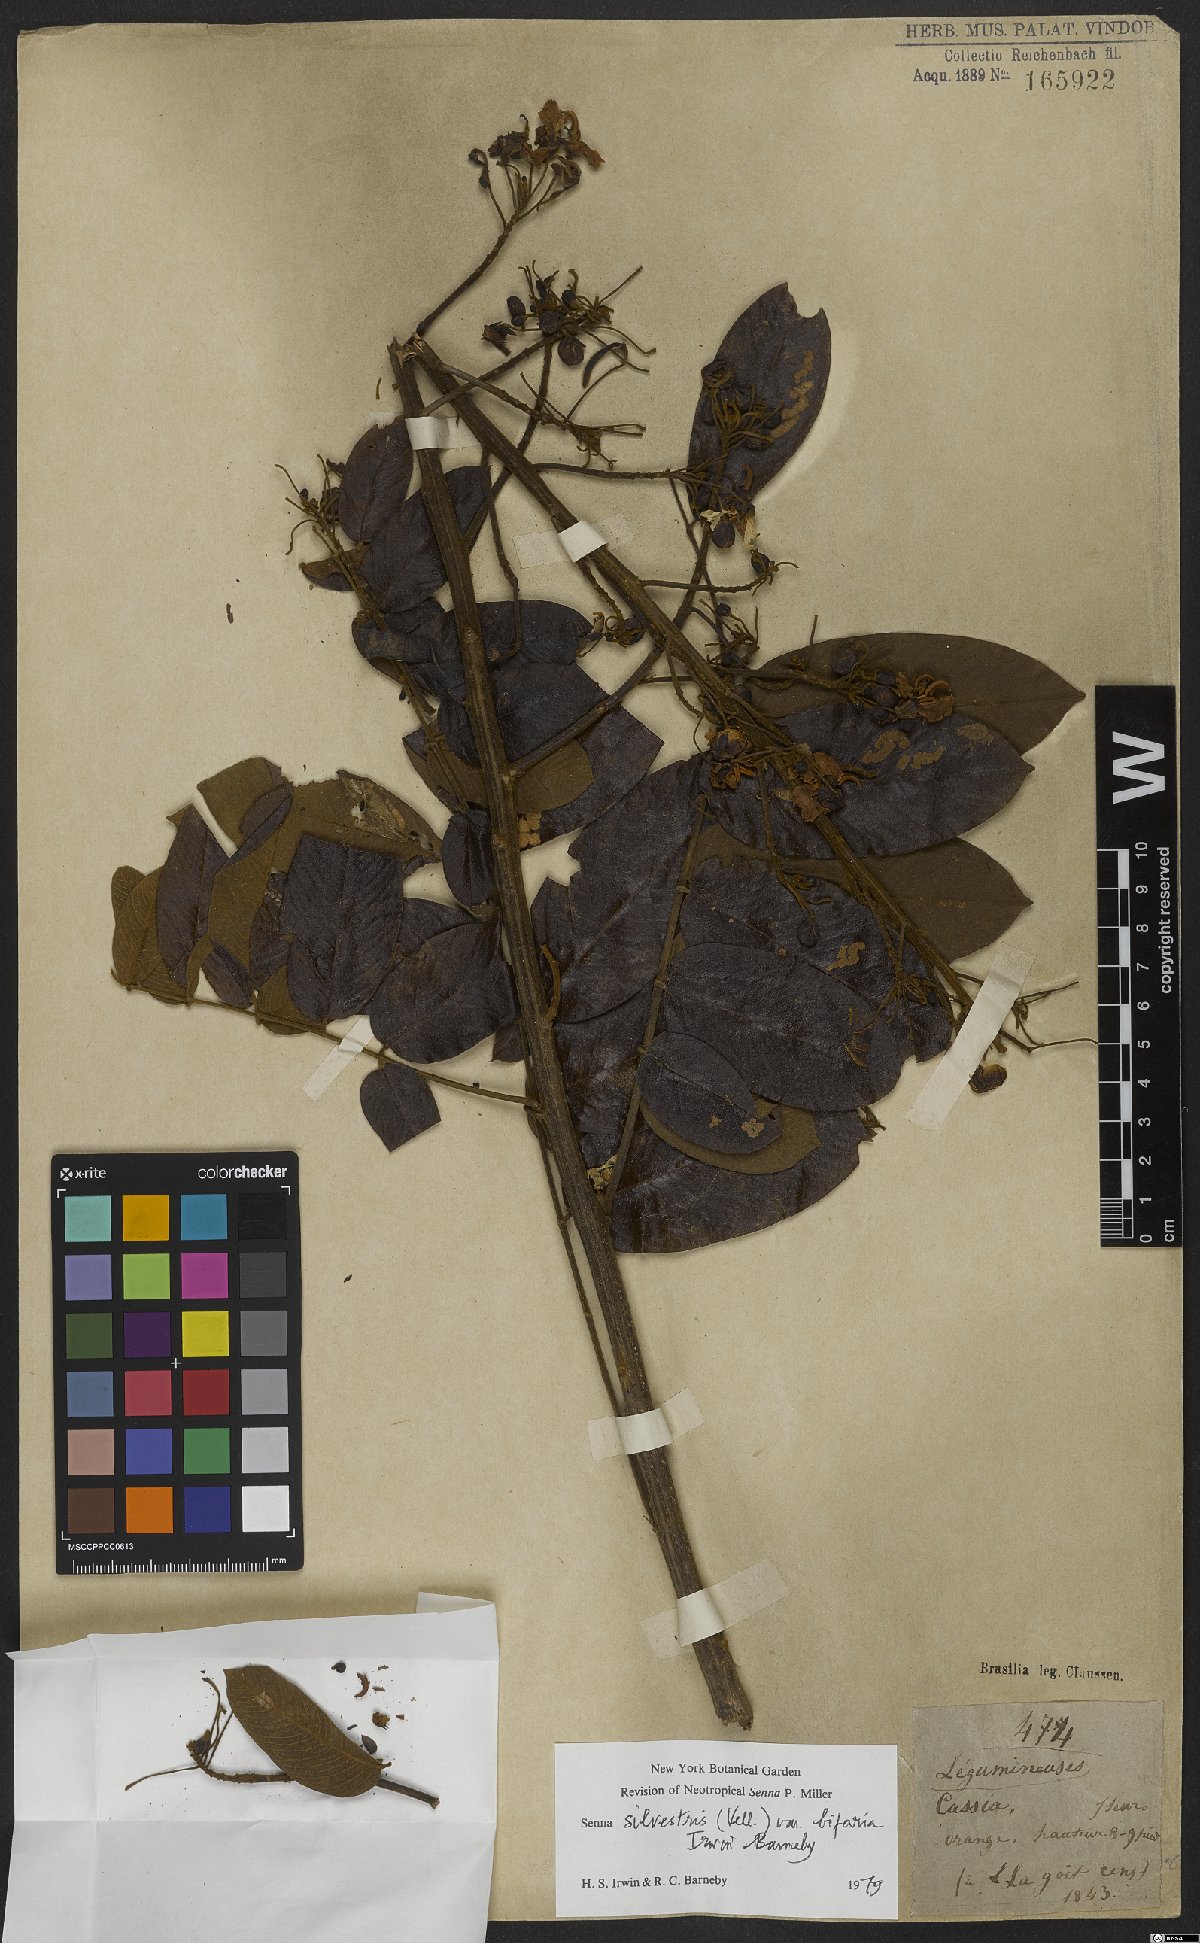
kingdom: Plantae
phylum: Tracheophyta
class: Magnoliopsida
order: Fabales
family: Fabaceae
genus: Senna
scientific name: Senna silvestris
